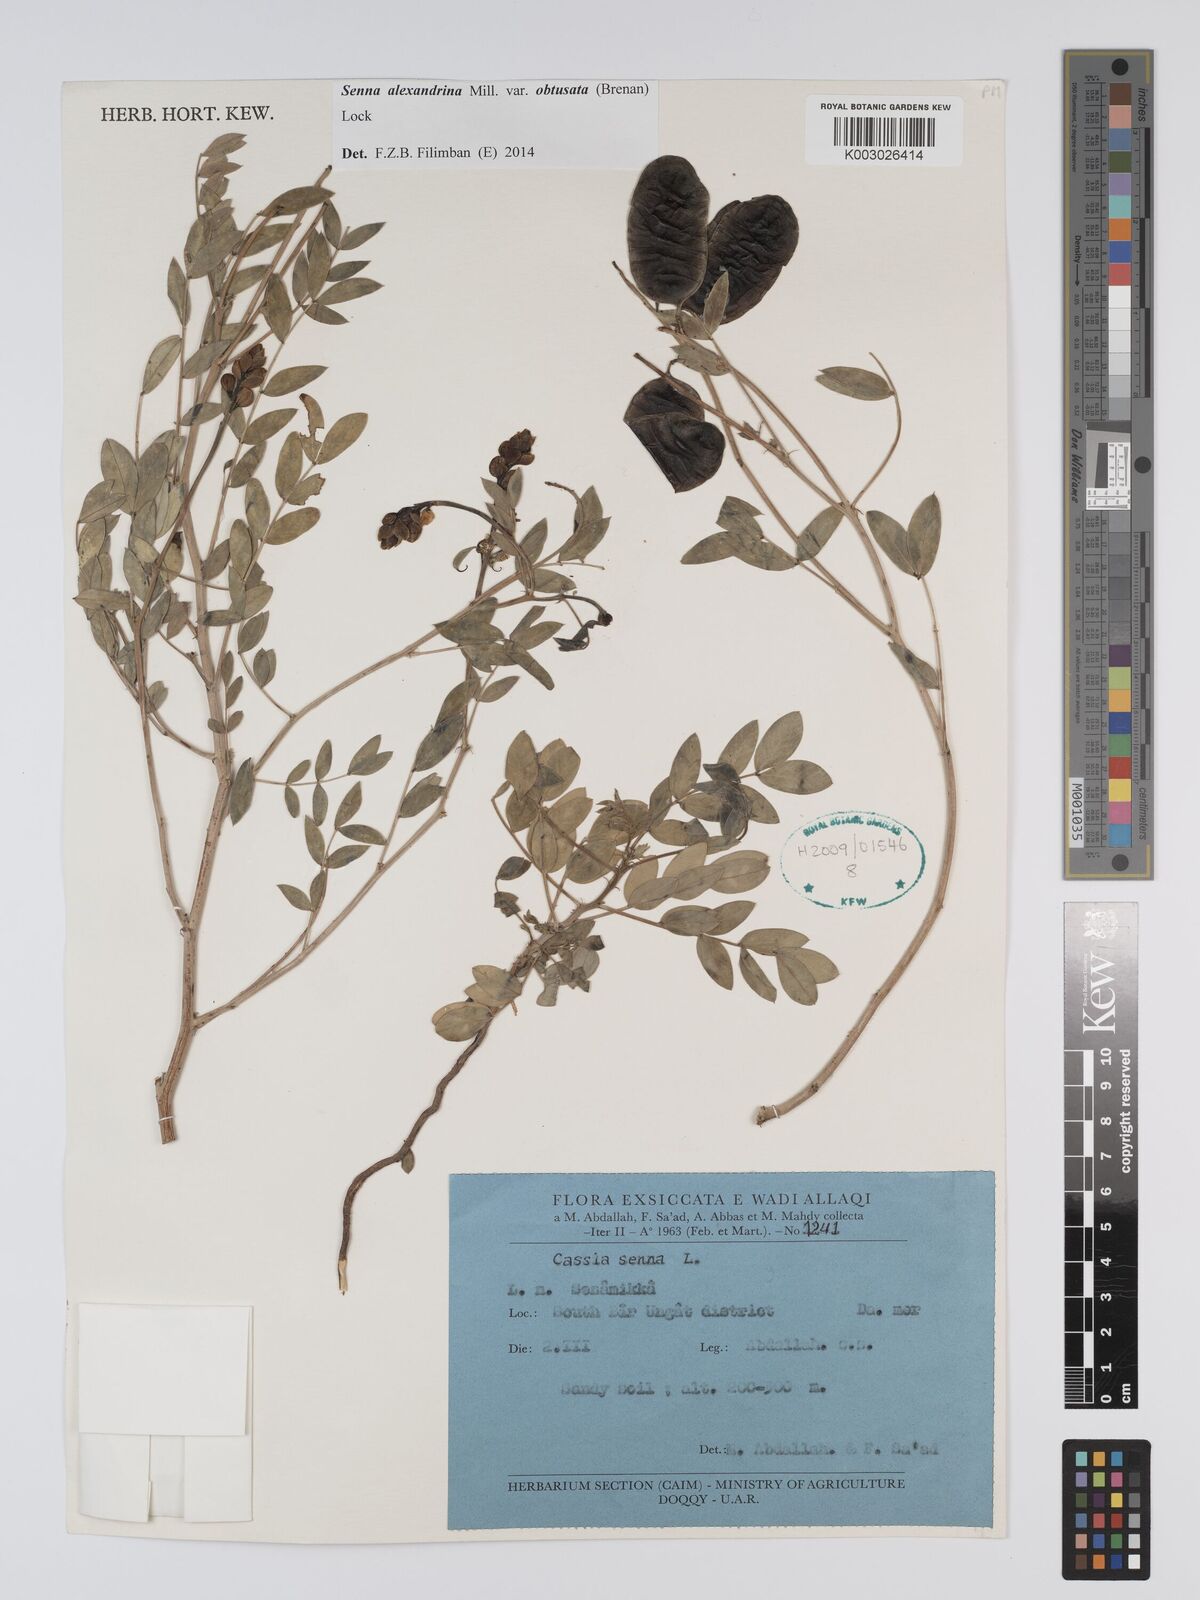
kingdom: Plantae
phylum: Tracheophyta
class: Magnoliopsida
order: Fabales
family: Fabaceae
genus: Senna
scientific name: Senna alexandrina
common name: True senna
